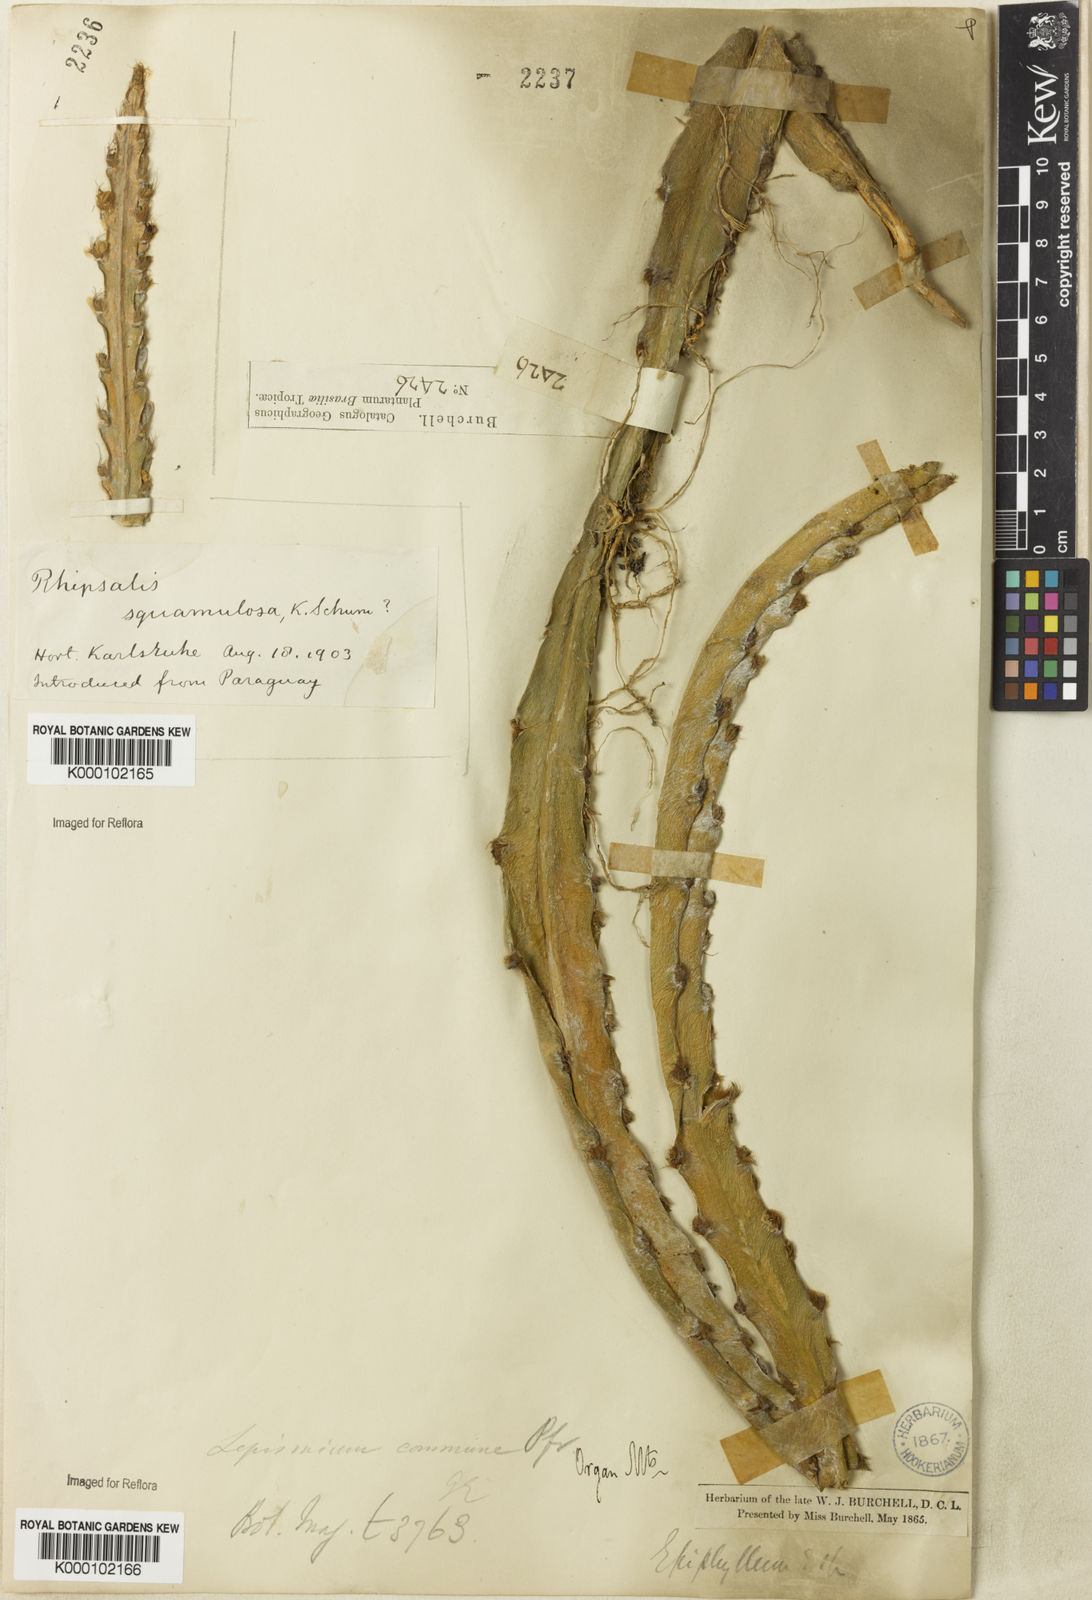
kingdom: Plantae
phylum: Tracheophyta
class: Magnoliopsida
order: Caryophyllales
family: Cactaceae
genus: Lepismium
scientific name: Lepismium cruciforme
